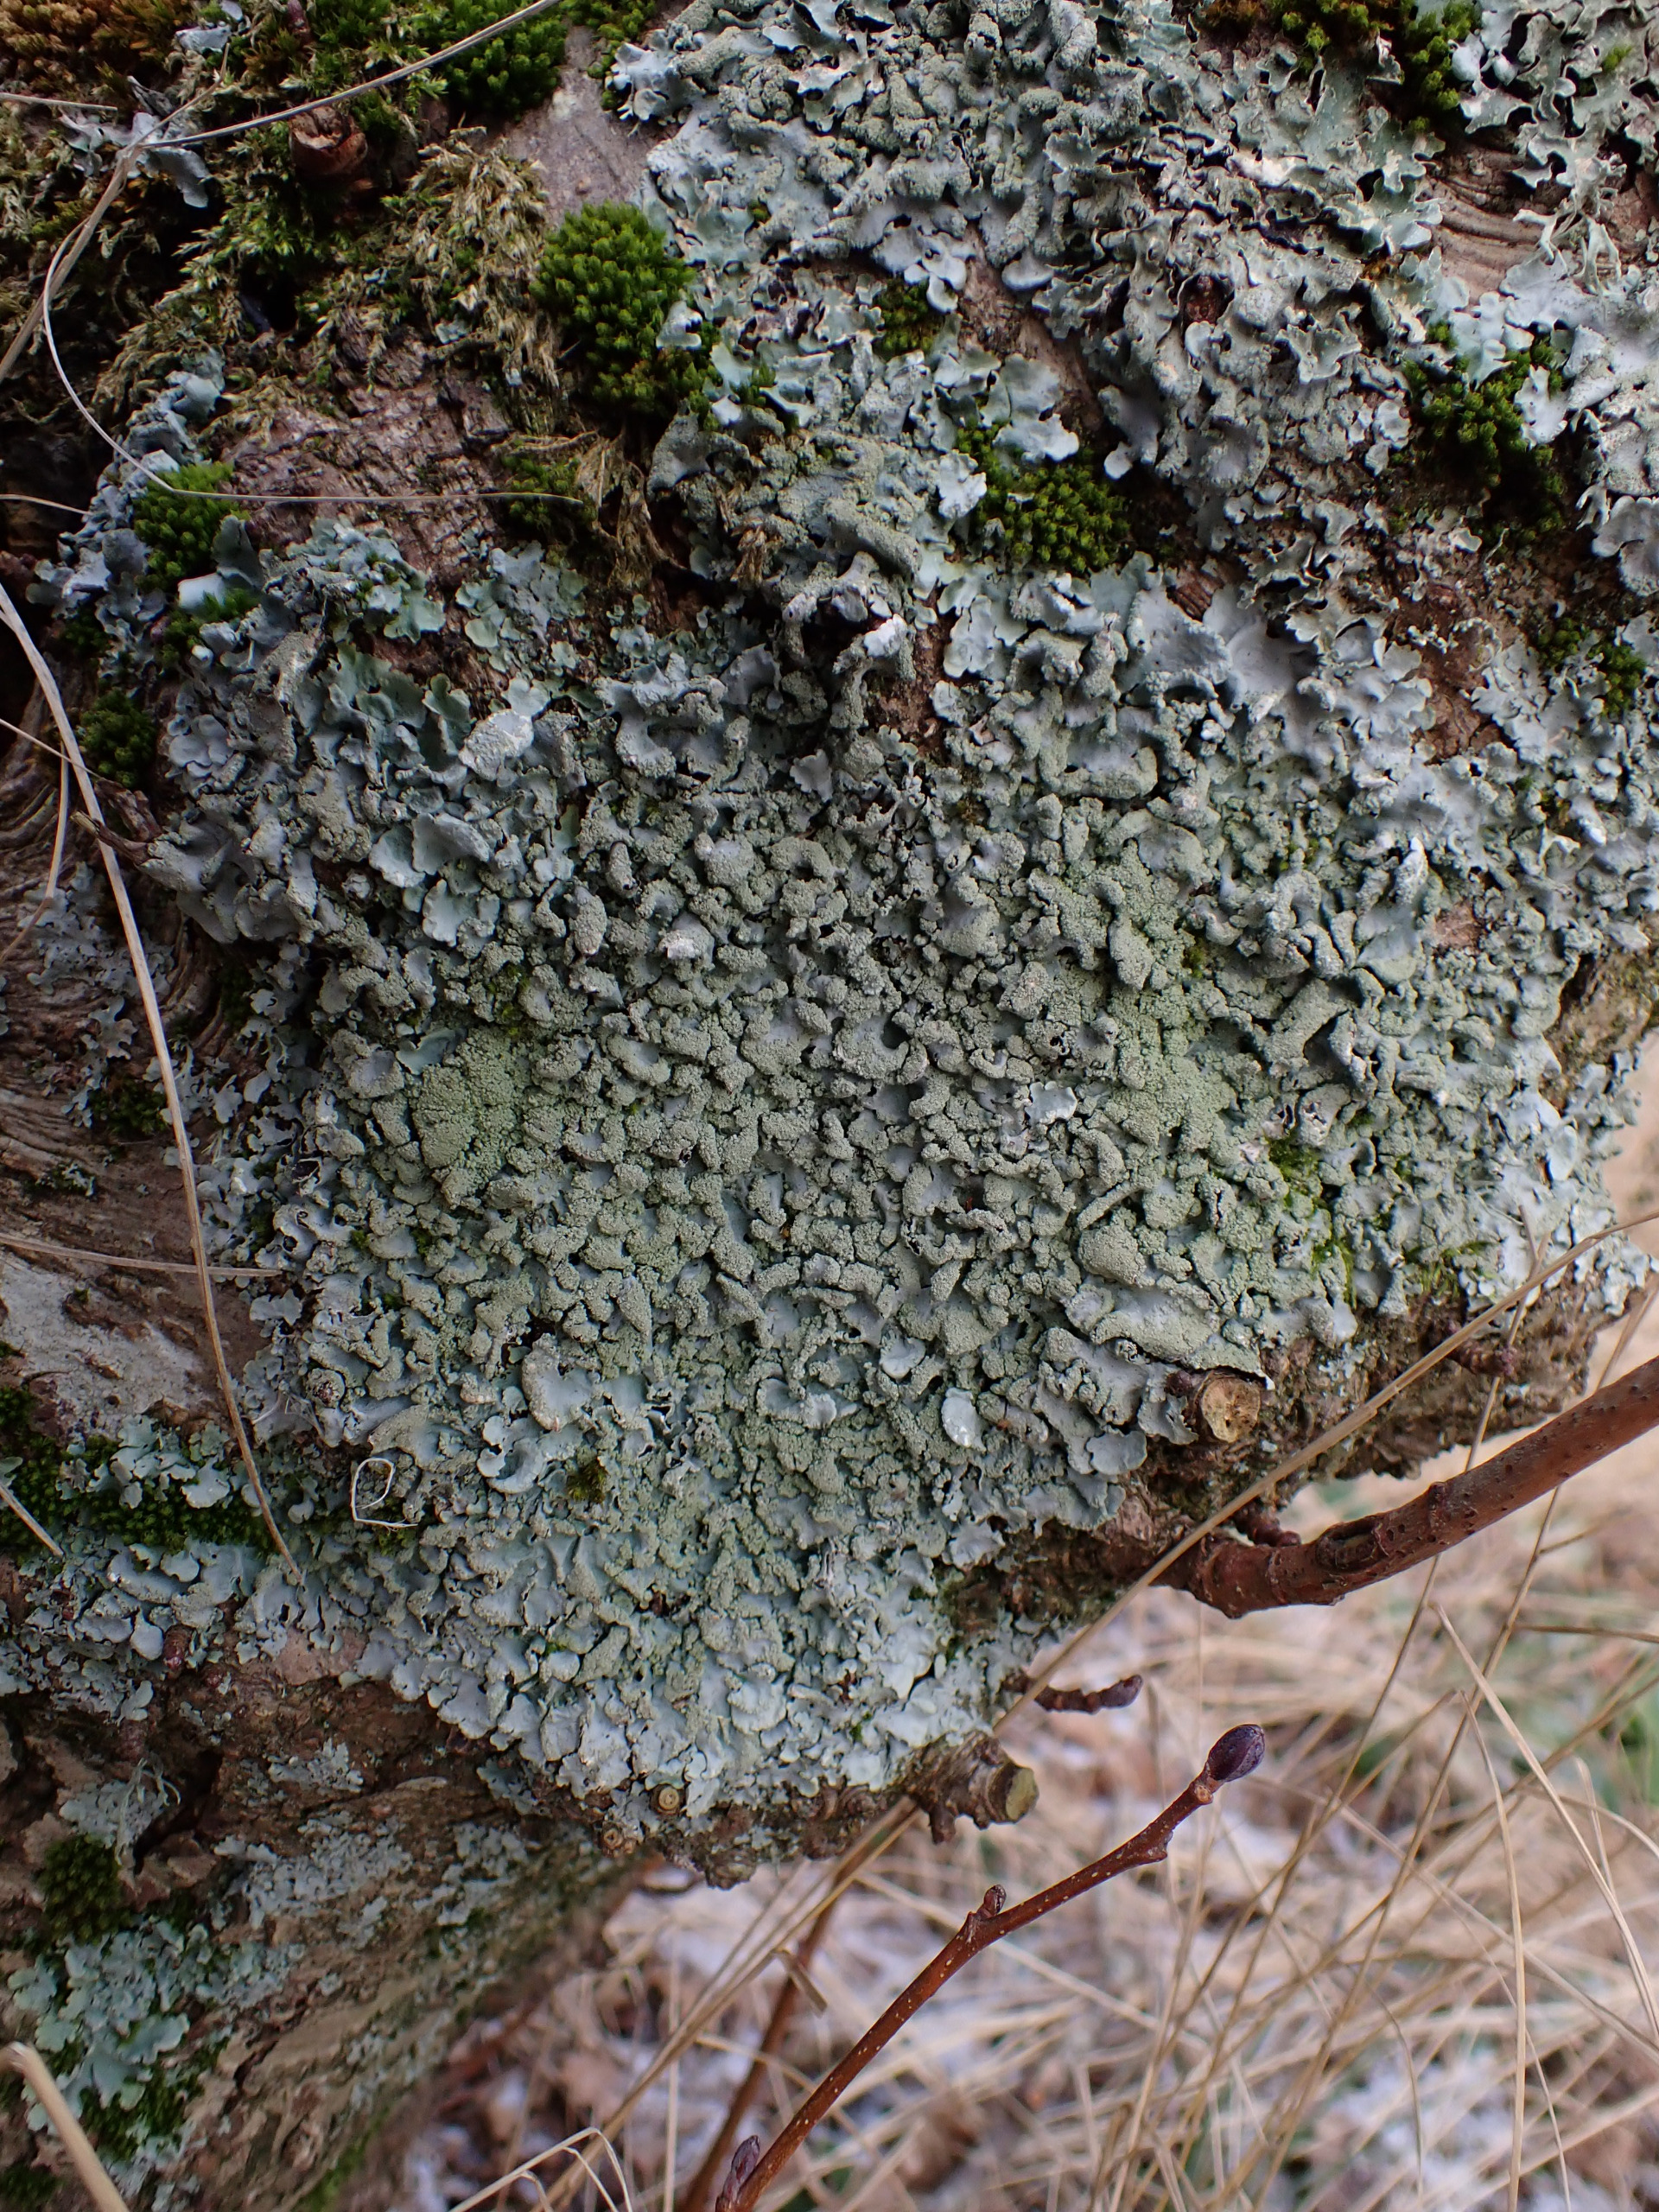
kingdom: Fungi
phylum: Ascomycota
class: Lecanoromycetes
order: Lecanorales
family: Parmeliaceae
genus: Hypotrachyna
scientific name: Hypotrachyna afrorevoluta
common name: Kyst-skållav
